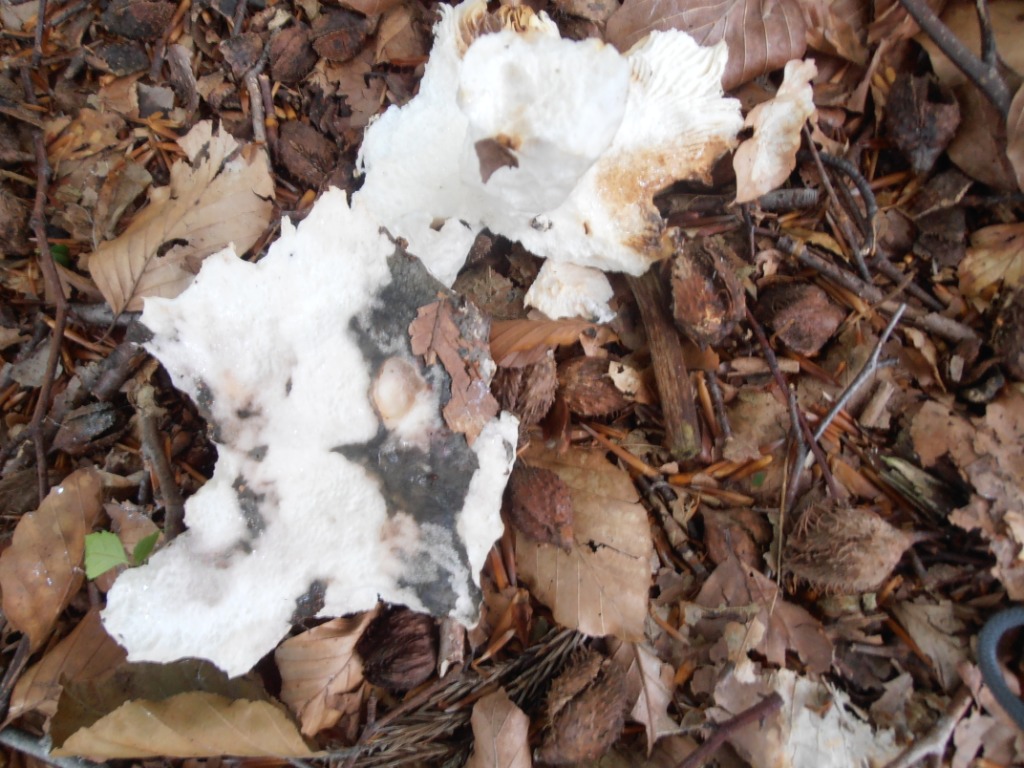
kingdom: Fungi
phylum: Basidiomycota
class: Agaricomycetes
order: Russulales
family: Russulaceae
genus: Russula
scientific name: Russula cyanoxantha
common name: broget skørhat
